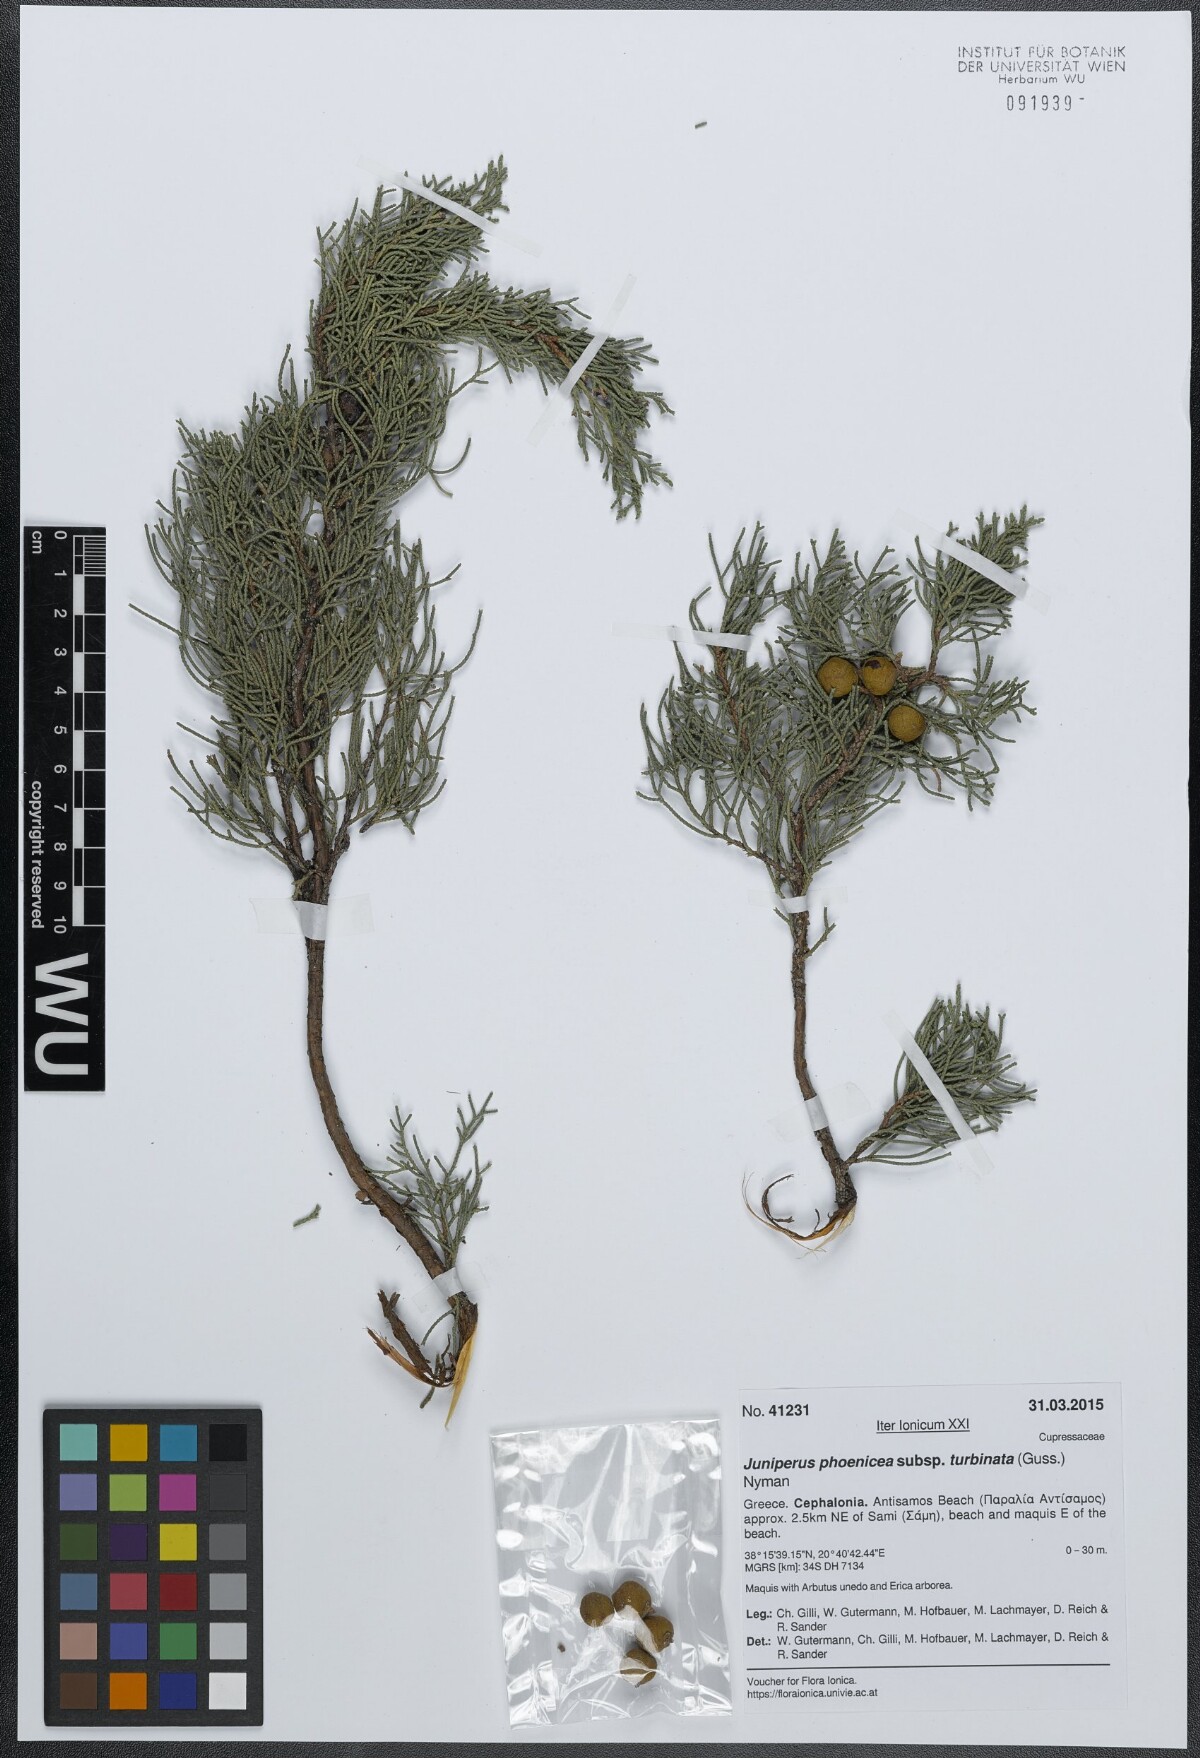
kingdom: Plantae
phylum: Tracheophyta
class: Pinopsida
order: Pinales
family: Cupressaceae
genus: Juniperus
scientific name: Juniperus phoenicea
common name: Phoenician juniper
